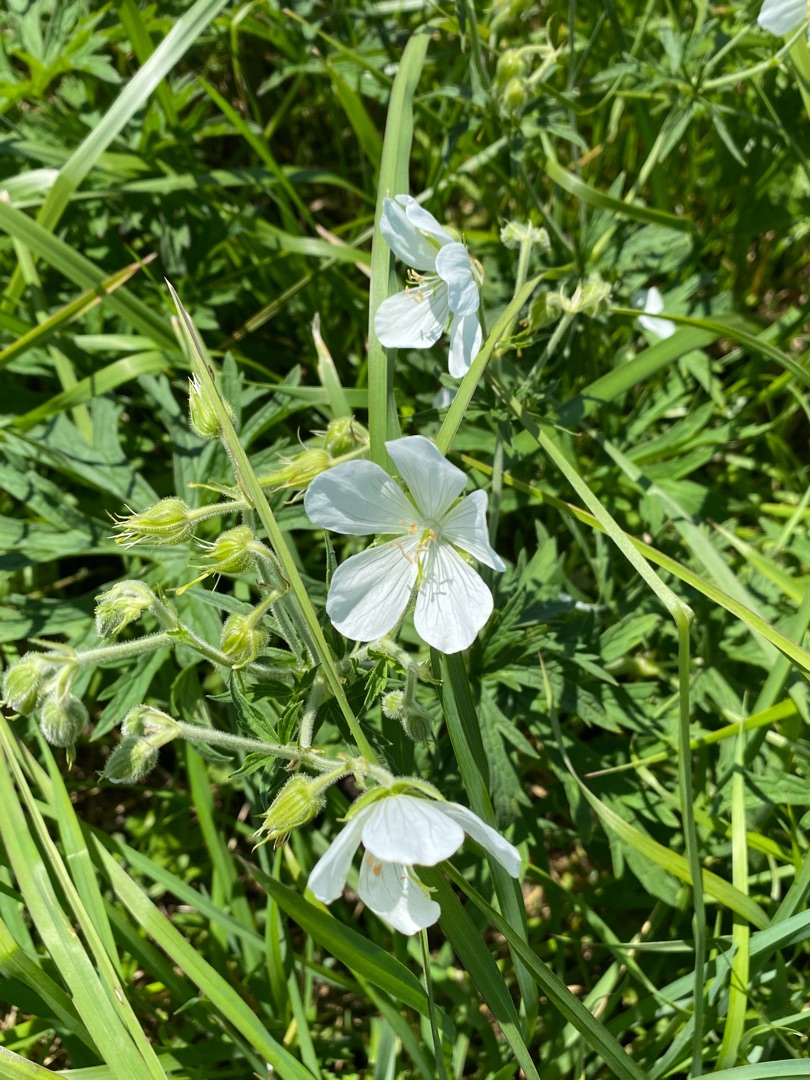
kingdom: Plantae
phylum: Tracheophyta
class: Magnoliopsida
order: Geraniales
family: Geraniaceae
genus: Geranium
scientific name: Geranium pratense
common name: Eng-storkenæb
